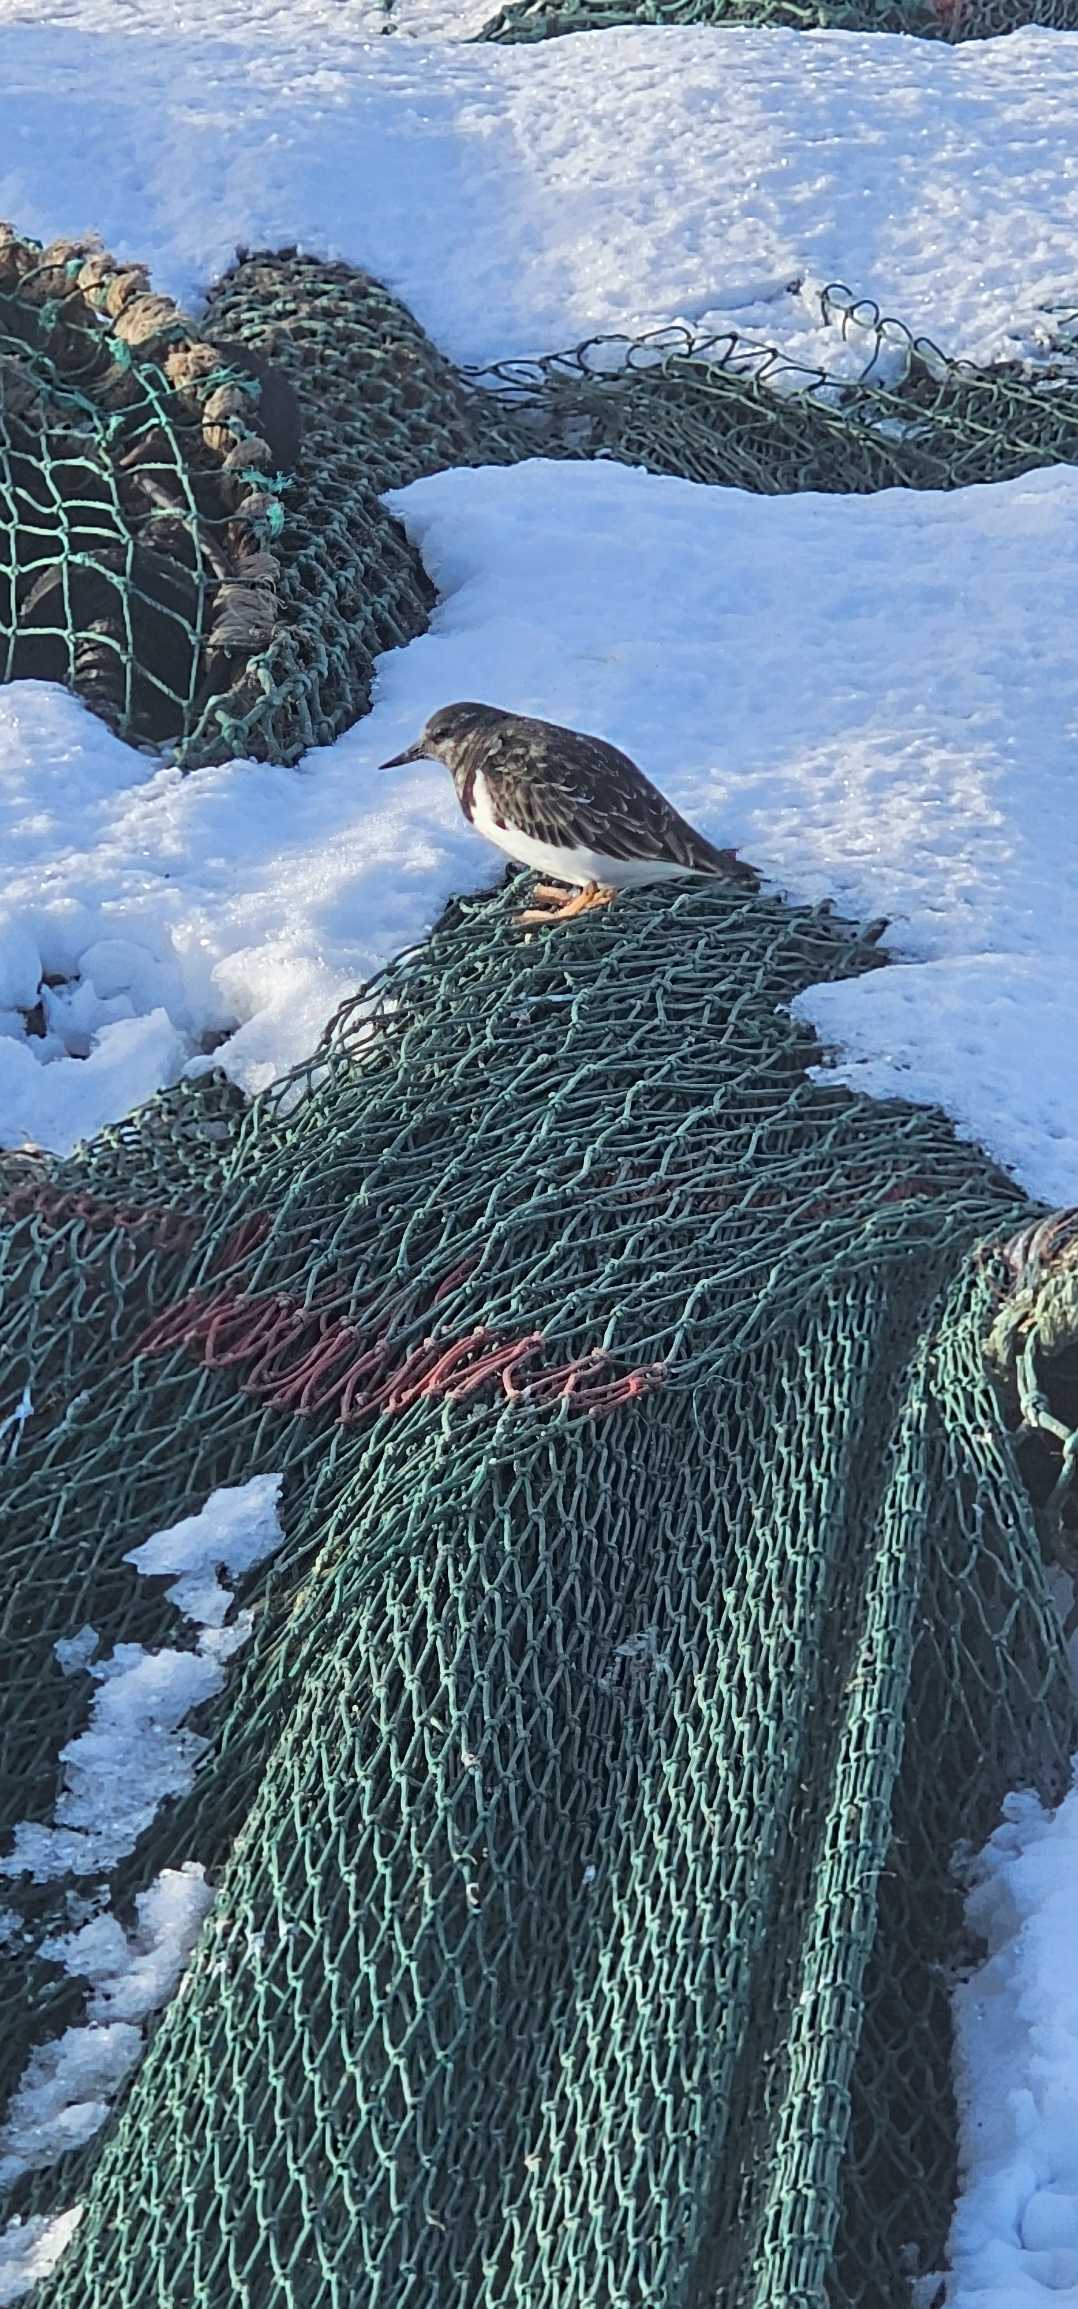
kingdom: Animalia
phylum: Chordata
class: Aves
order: Charadriiformes
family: Scolopacidae
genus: Arenaria
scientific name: Arenaria interpres
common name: Stenvender
